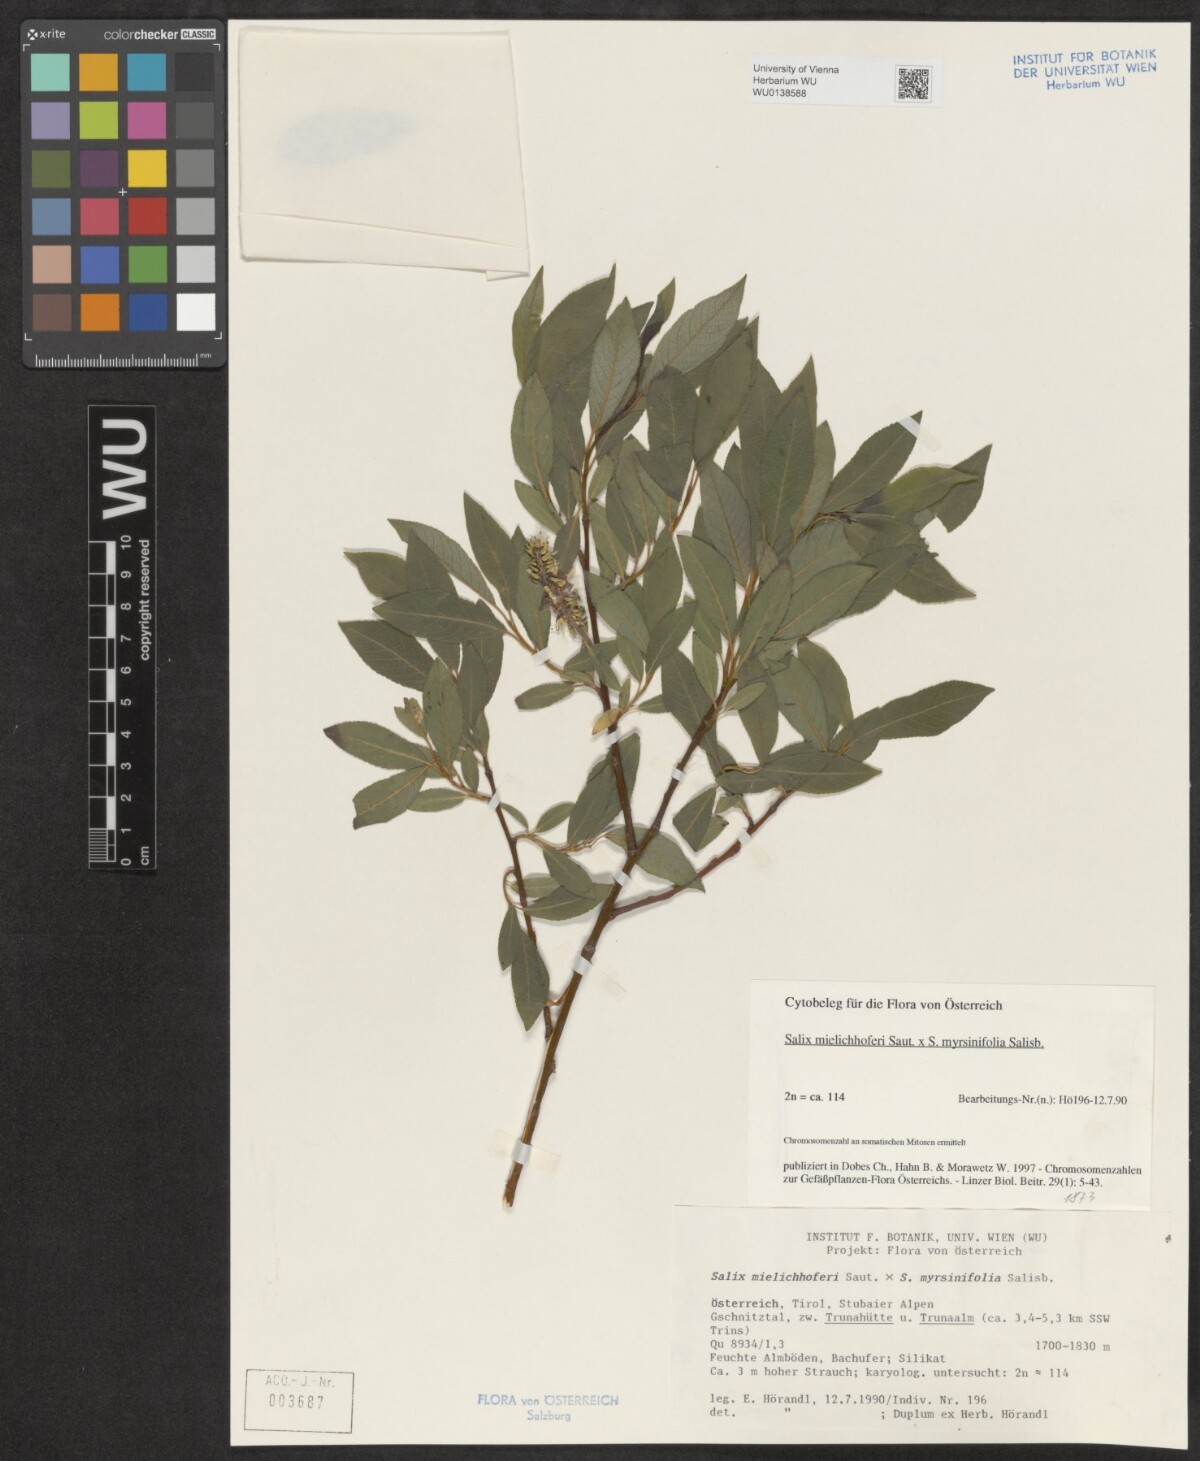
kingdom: Plantae
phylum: Tracheophyta
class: Magnoliopsida
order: Malpighiales
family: Salicaceae
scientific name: Salicaceae
